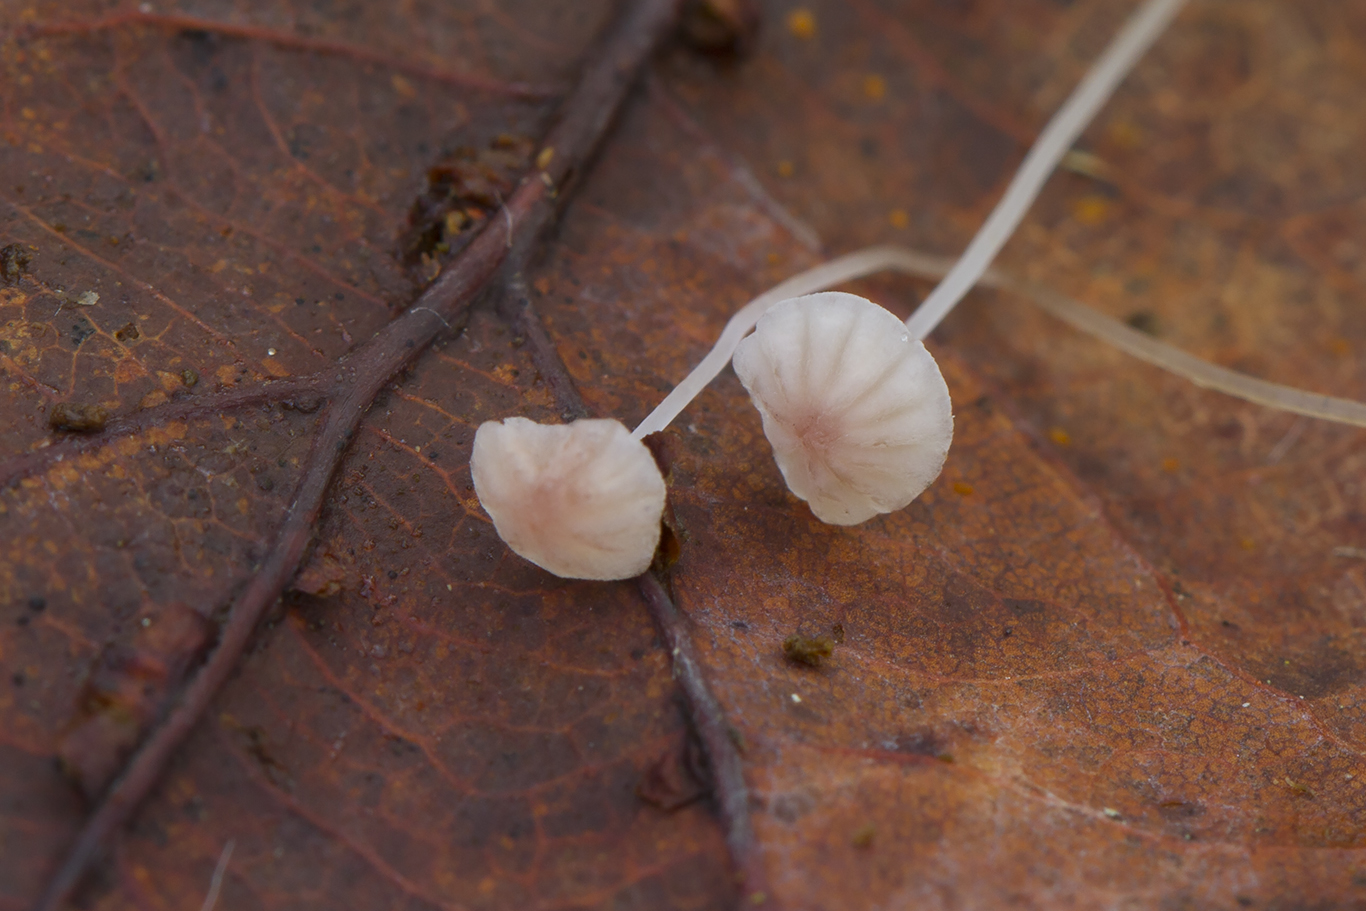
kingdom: Fungi
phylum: Basidiomycota
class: Agaricomycetes
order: Agaricales
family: Mycenaceae
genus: Mycena
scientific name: Mycena smithiana
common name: blegrød huesvamp
